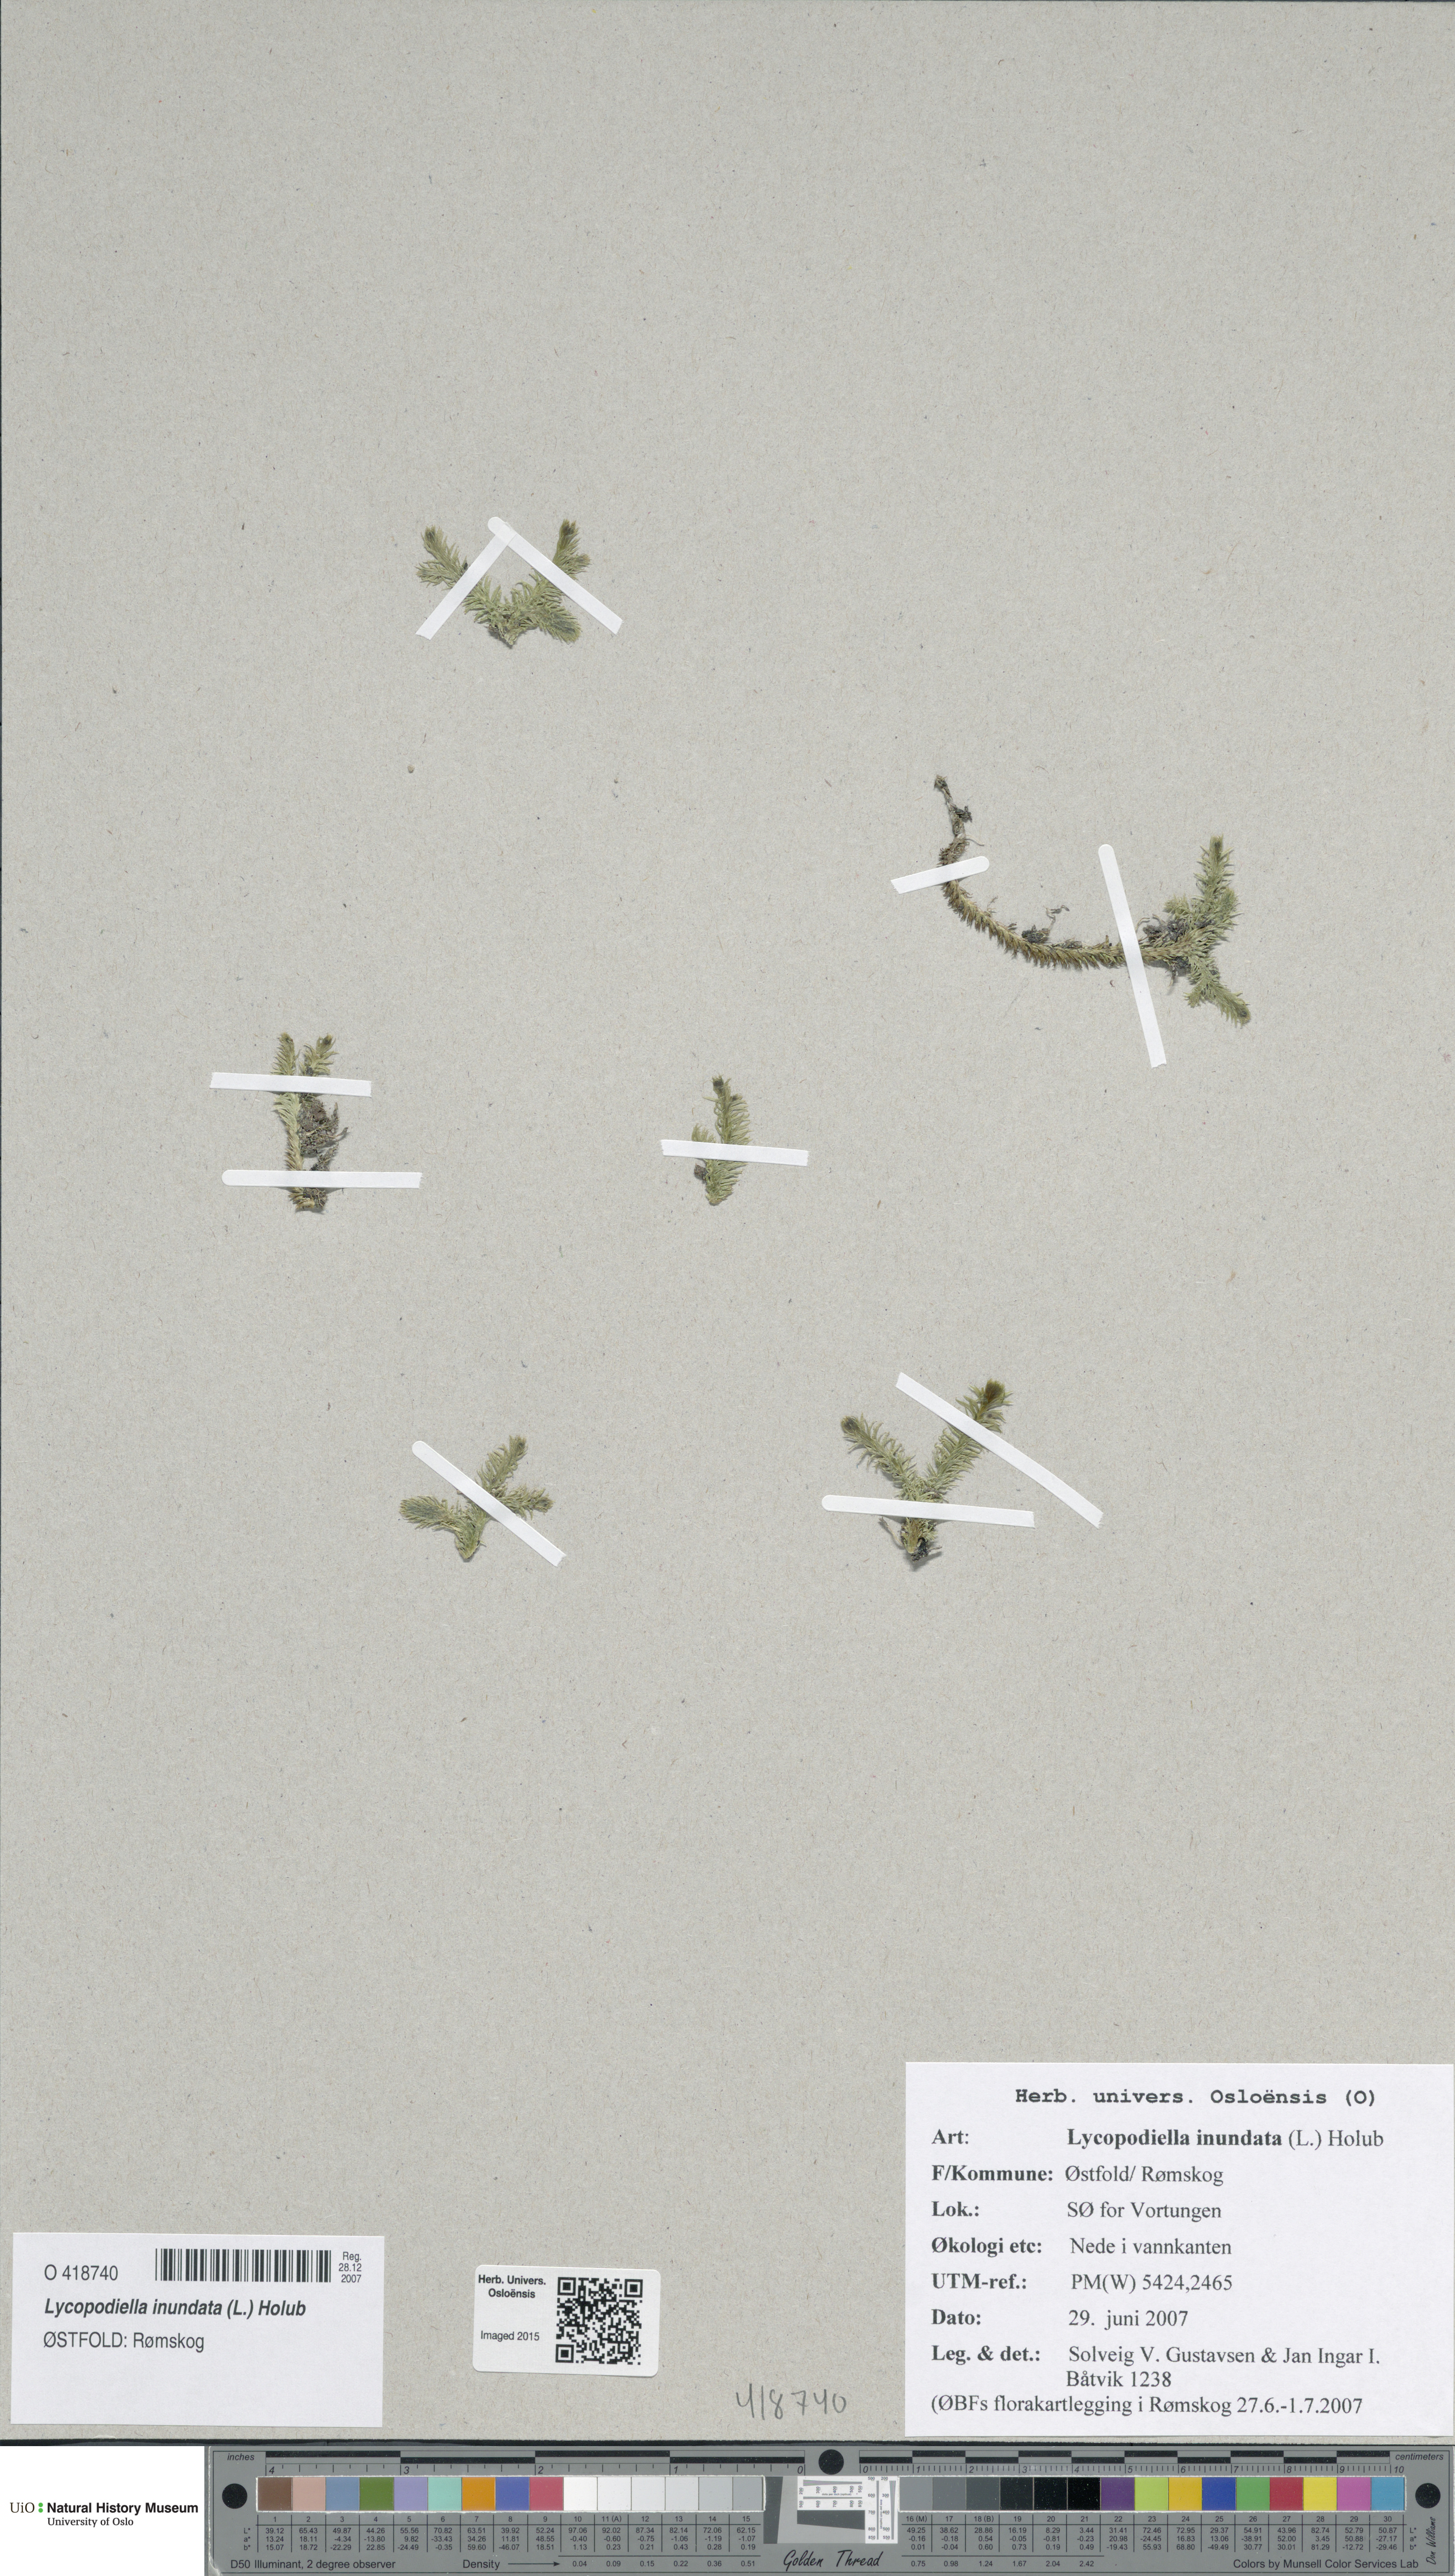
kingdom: Plantae
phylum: Tracheophyta
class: Lycopodiopsida
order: Lycopodiales
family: Lycopodiaceae
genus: Lycopodiella
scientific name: Lycopodiella inundata
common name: Marsh clubmoss
